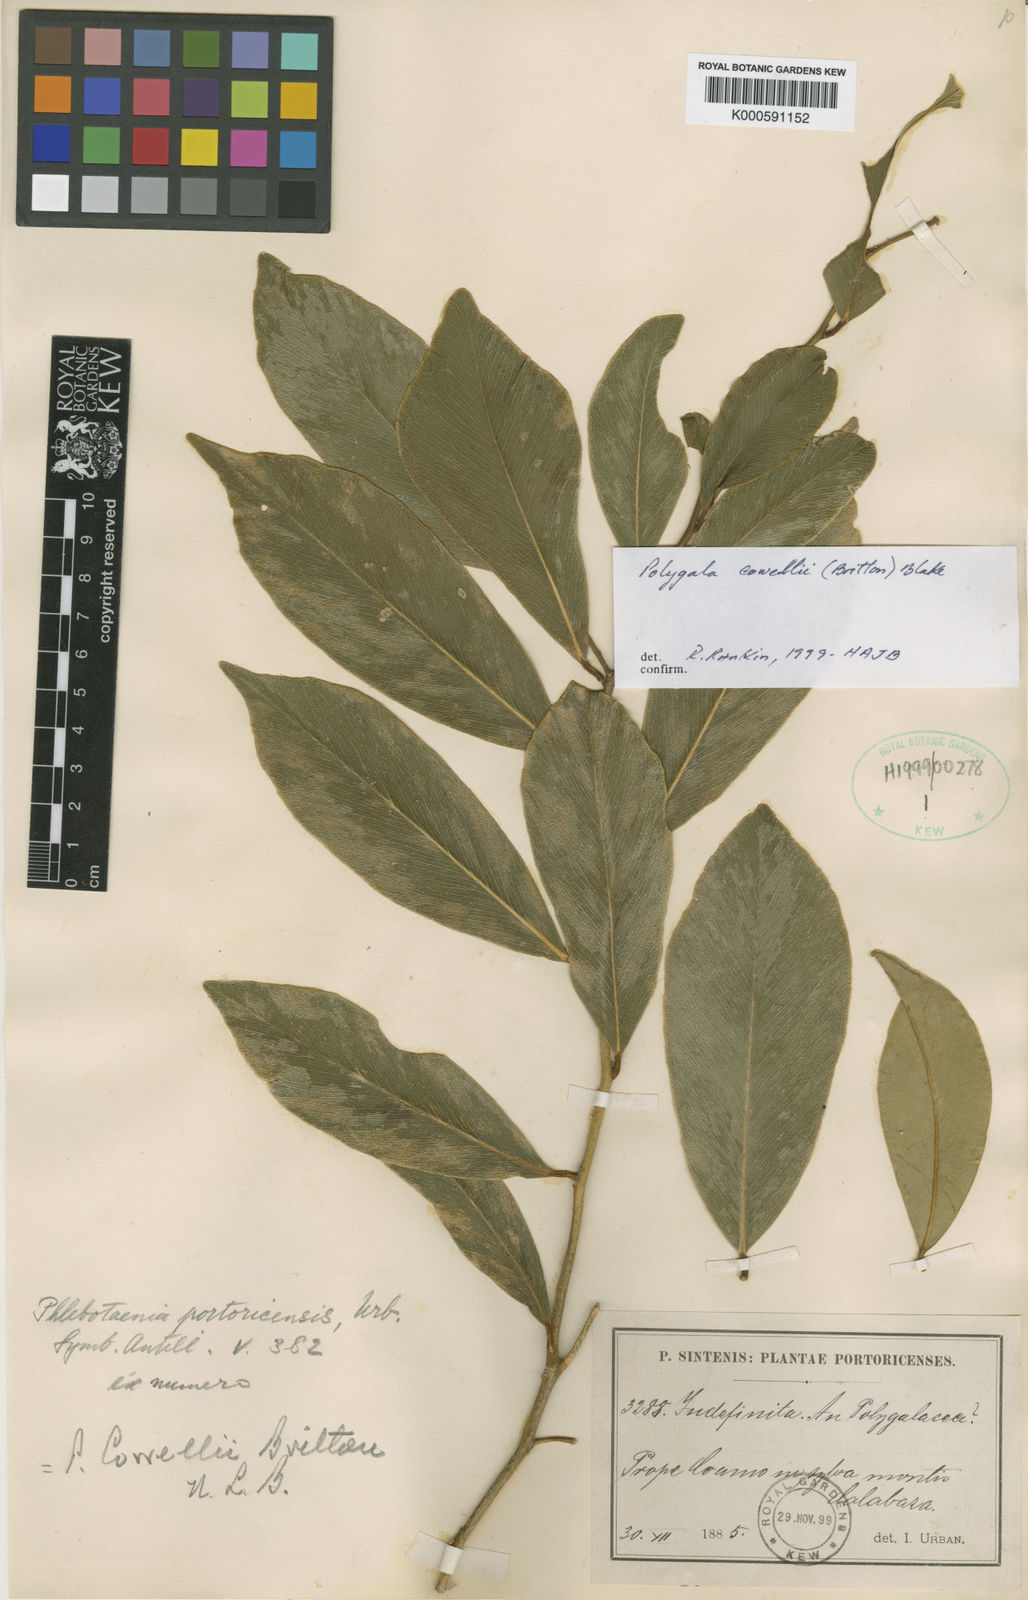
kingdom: Plantae
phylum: Tracheophyta
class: Magnoliopsida
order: Fabales
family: Polygalaceae
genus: Phlebotaenia
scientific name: Phlebotaenia cowellii
